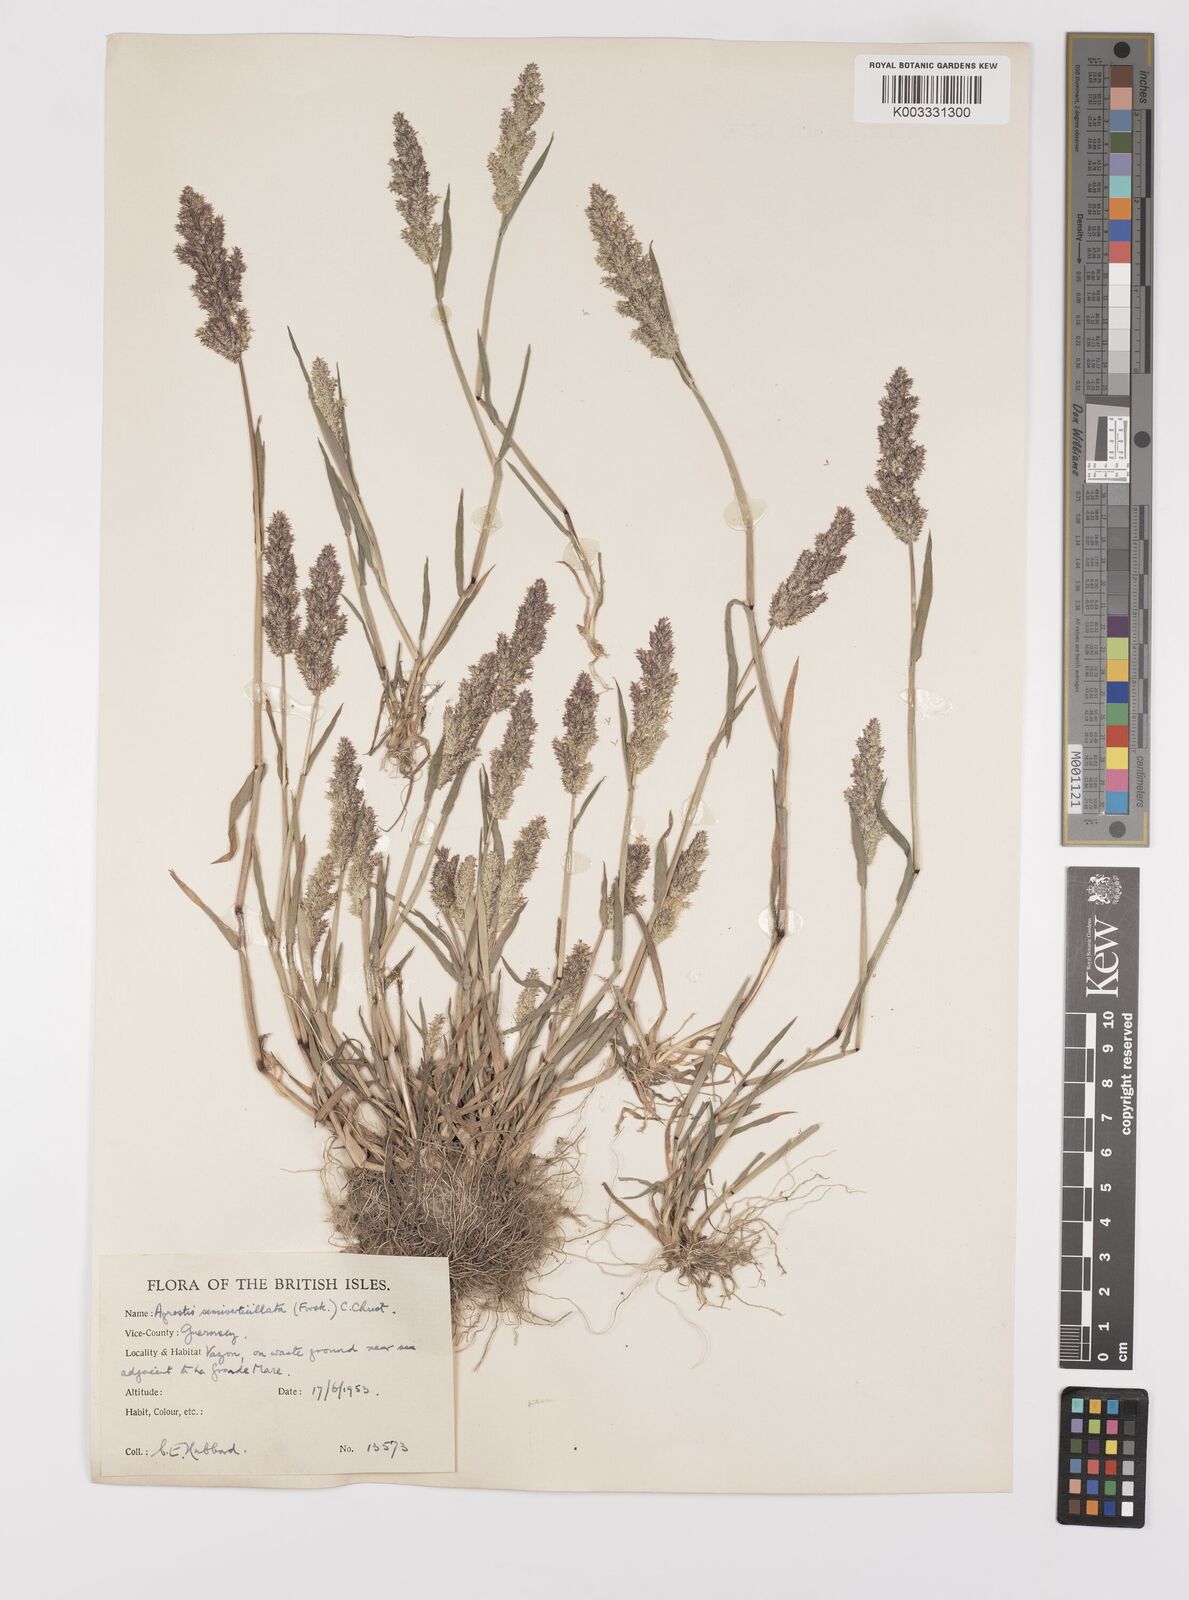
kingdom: Plantae
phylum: Tracheophyta
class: Liliopsida
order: Poales
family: Poaceae
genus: Polypogon
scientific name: Polypogon viridis
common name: Water bent
